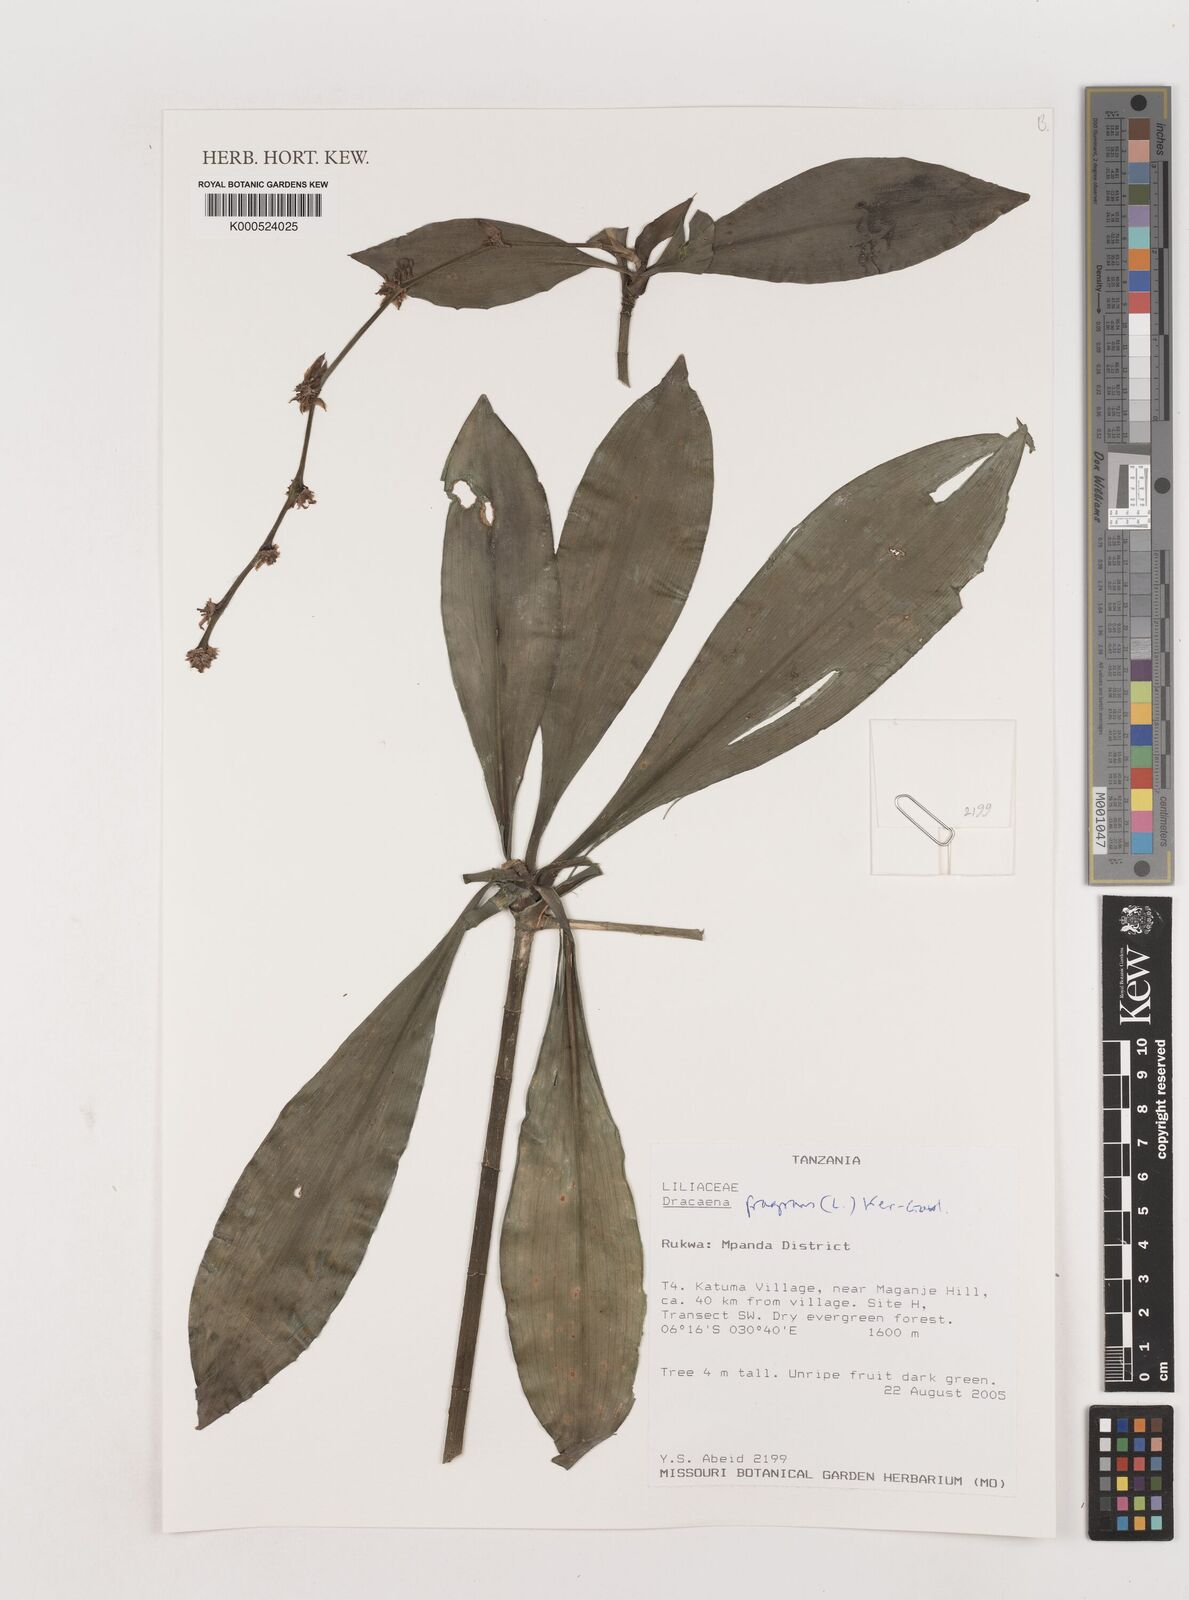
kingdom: Plantae
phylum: Tracheophyta
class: Liliopsida
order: Asparagales
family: Asparagaceae
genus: Dracaena
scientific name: Dracaena fragrans
